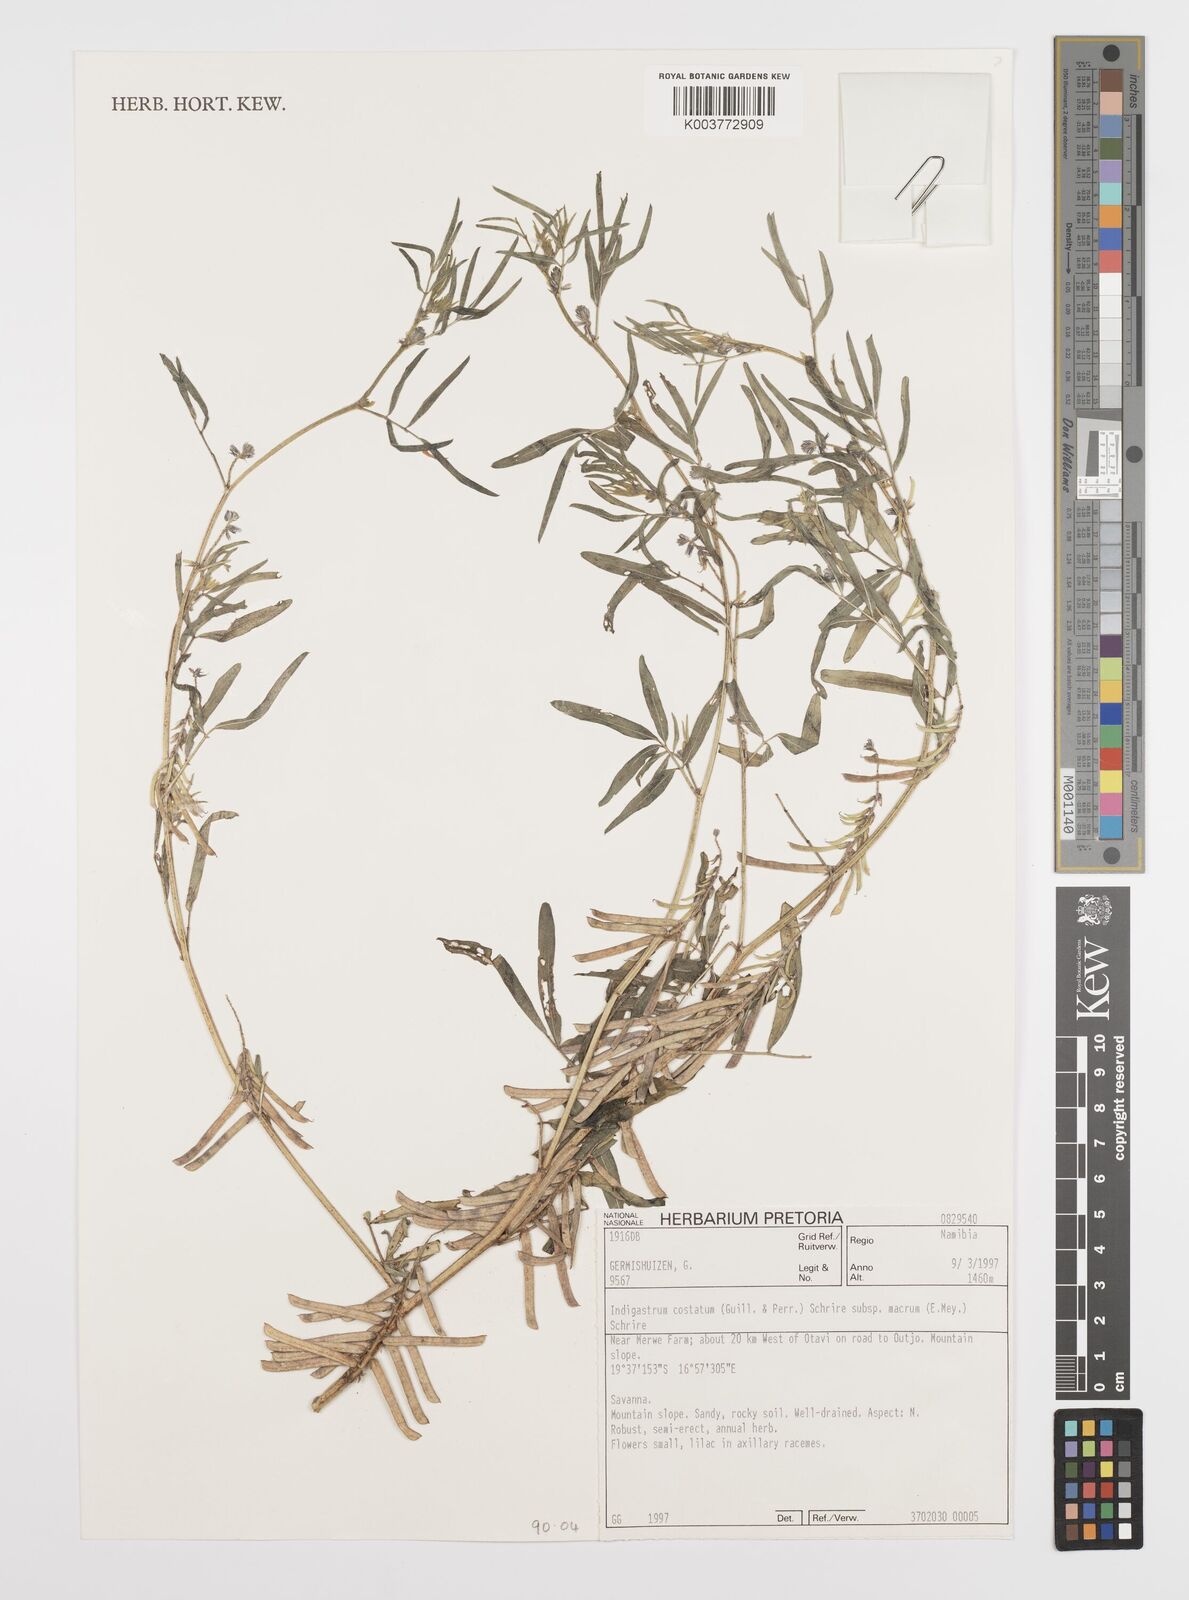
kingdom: Plantae
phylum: Tracheophyta
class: Magnoliopsida
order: Fabales
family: Fabaceae
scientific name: Fabaceae
